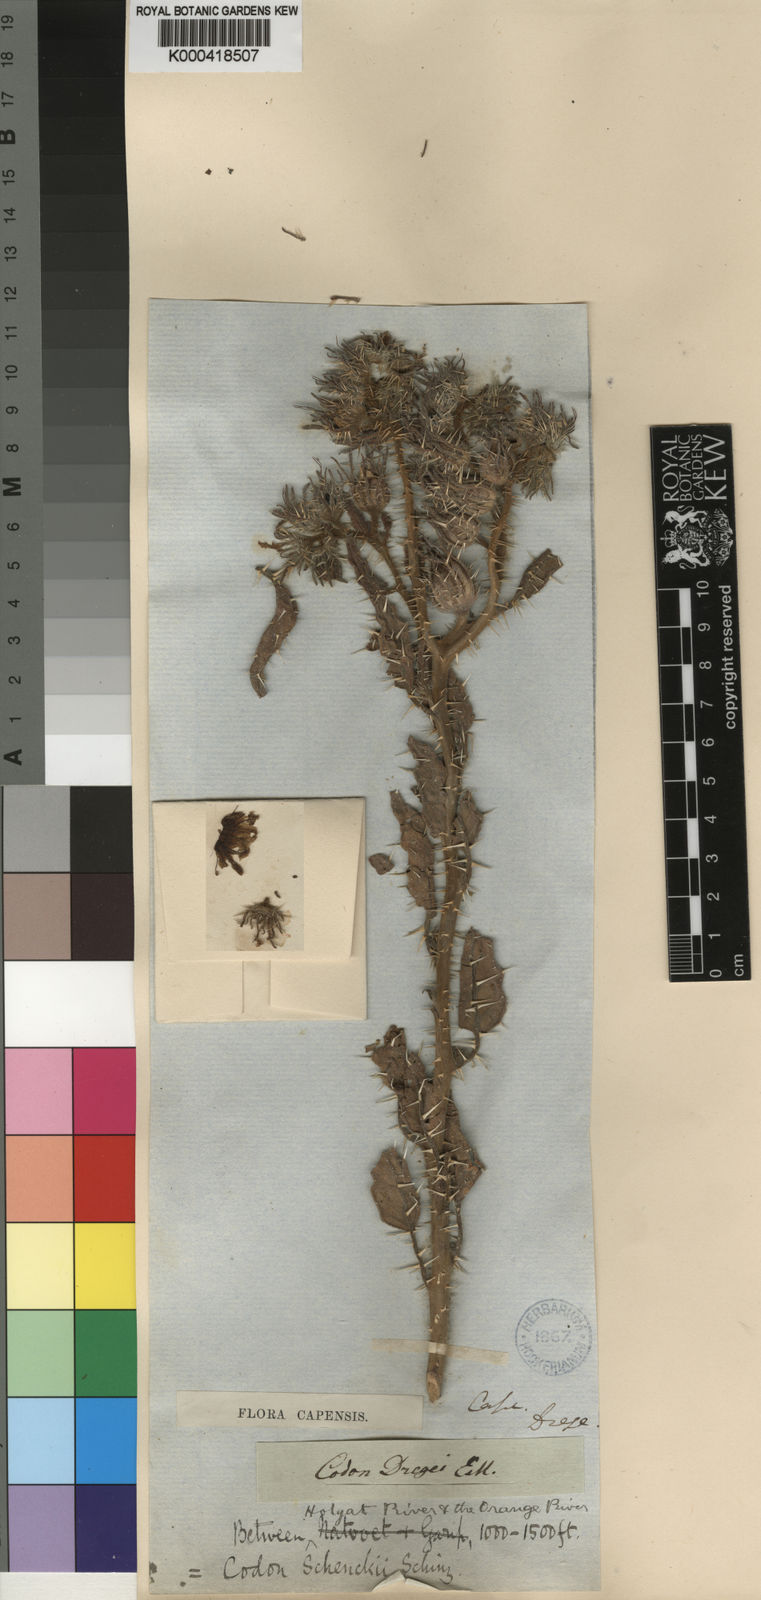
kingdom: Plantae
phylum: Tracheophyta
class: Magnoliopsida
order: Boraginales
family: Codonaceae
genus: Codon
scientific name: Codon schenckii
